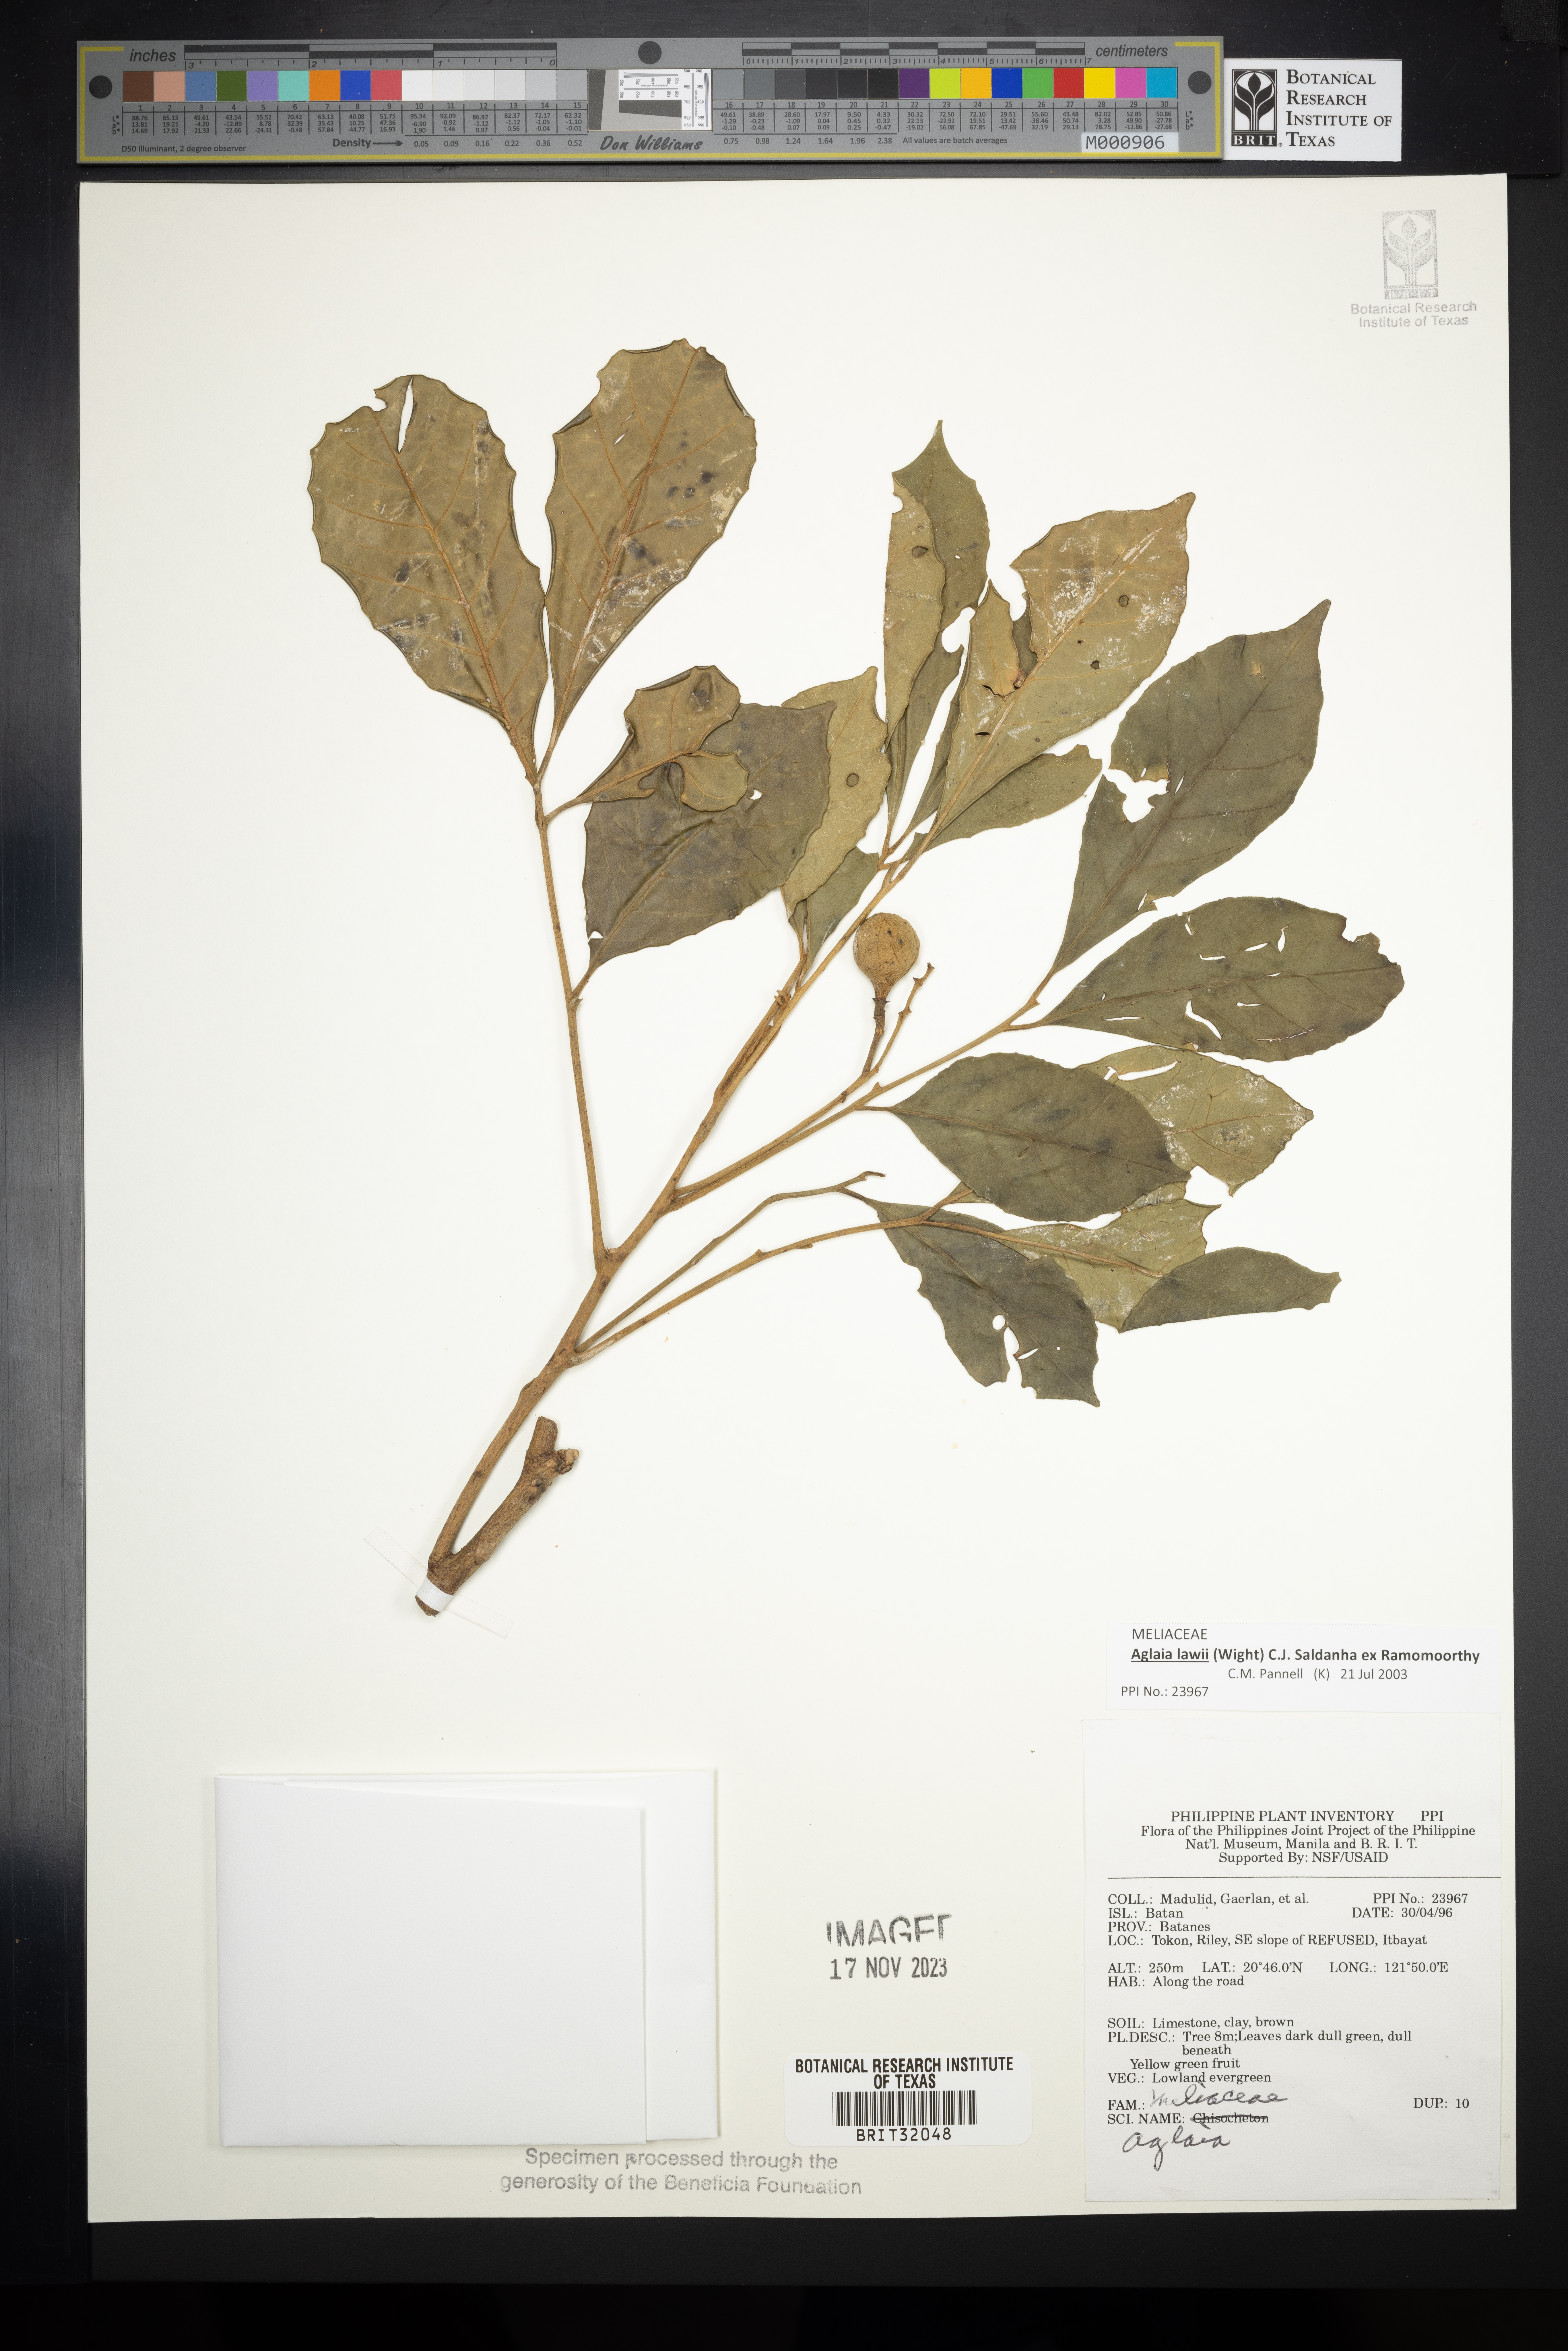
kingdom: Plantae
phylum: Tracheophyta
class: Magnoliopsida
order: Sapindales
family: Meliaceae
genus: Aglaia
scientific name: Aglaia
